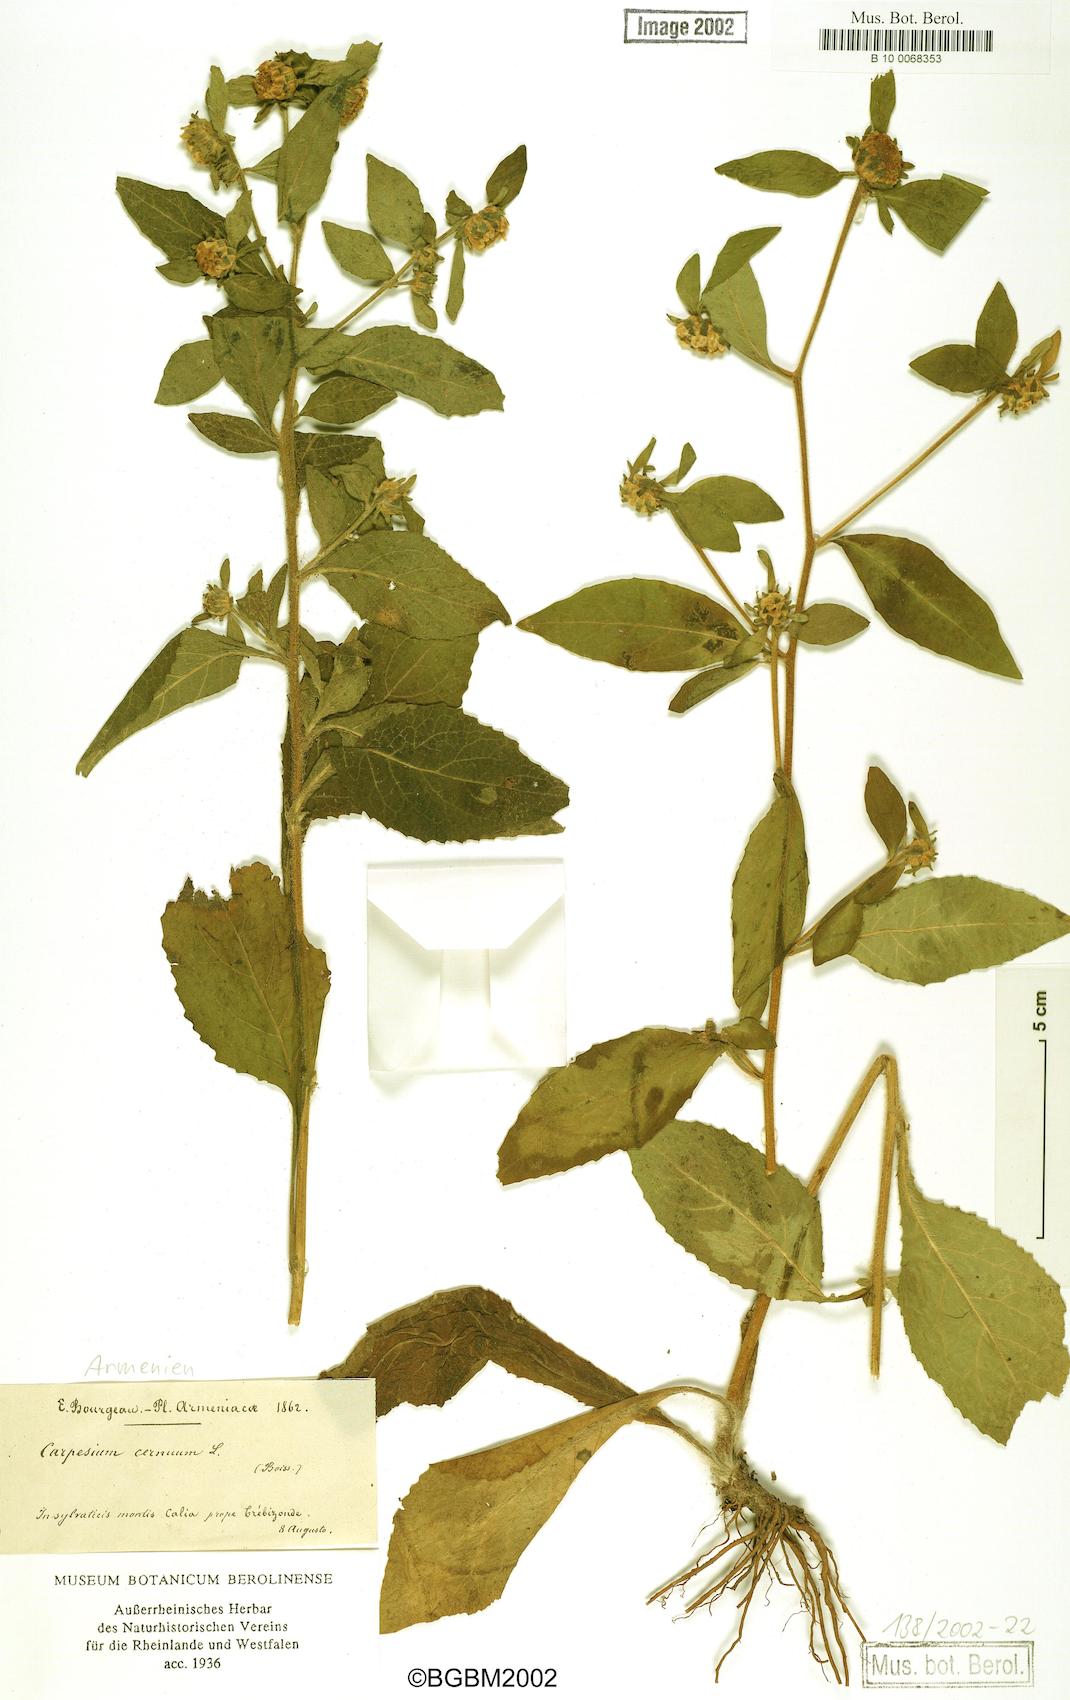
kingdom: Plantae
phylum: Tracheophyta
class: Magnoliopsida
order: Asterales
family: Asteraceae
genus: Carpesium
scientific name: Carpesium cernuum
